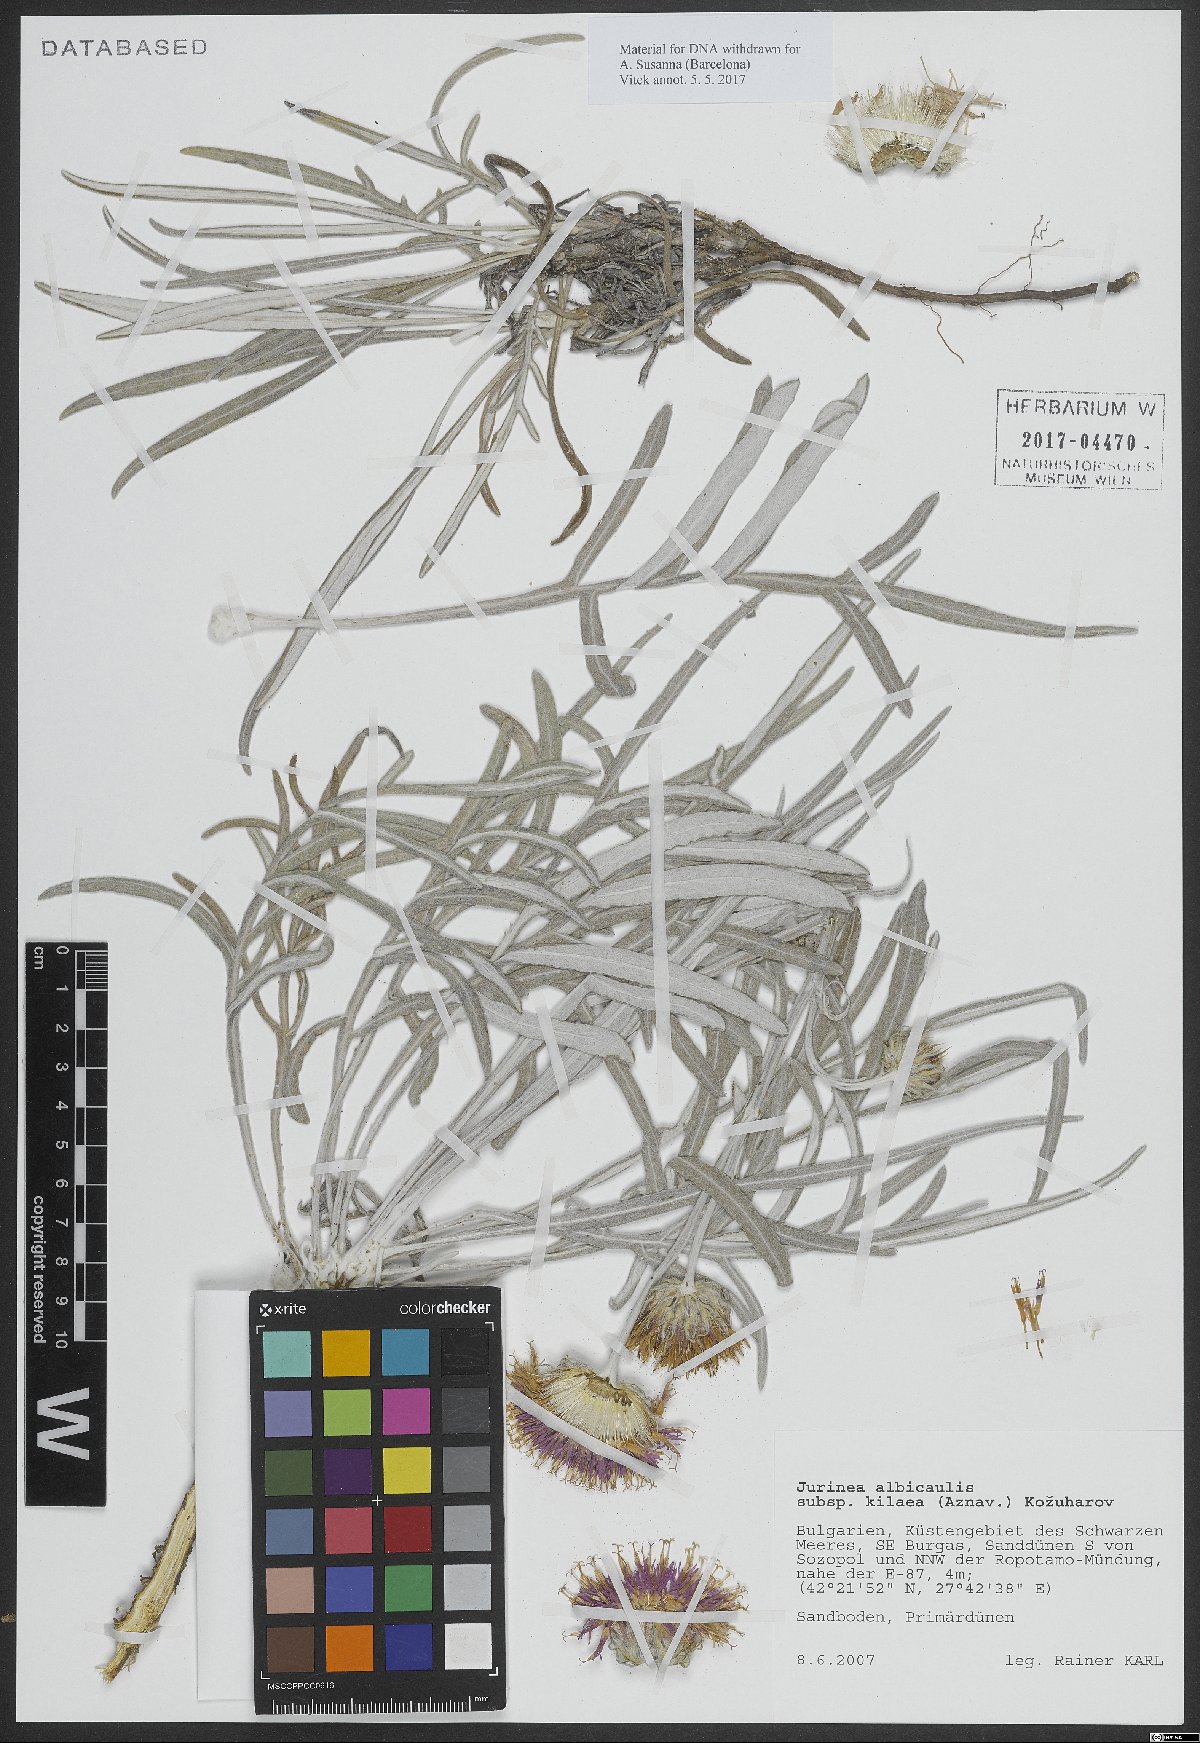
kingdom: Plantae
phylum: Tracheophyta
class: Magnoliopsida
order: Asterales
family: Asteraceae
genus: Jurinea
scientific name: Jurinea kilaea
